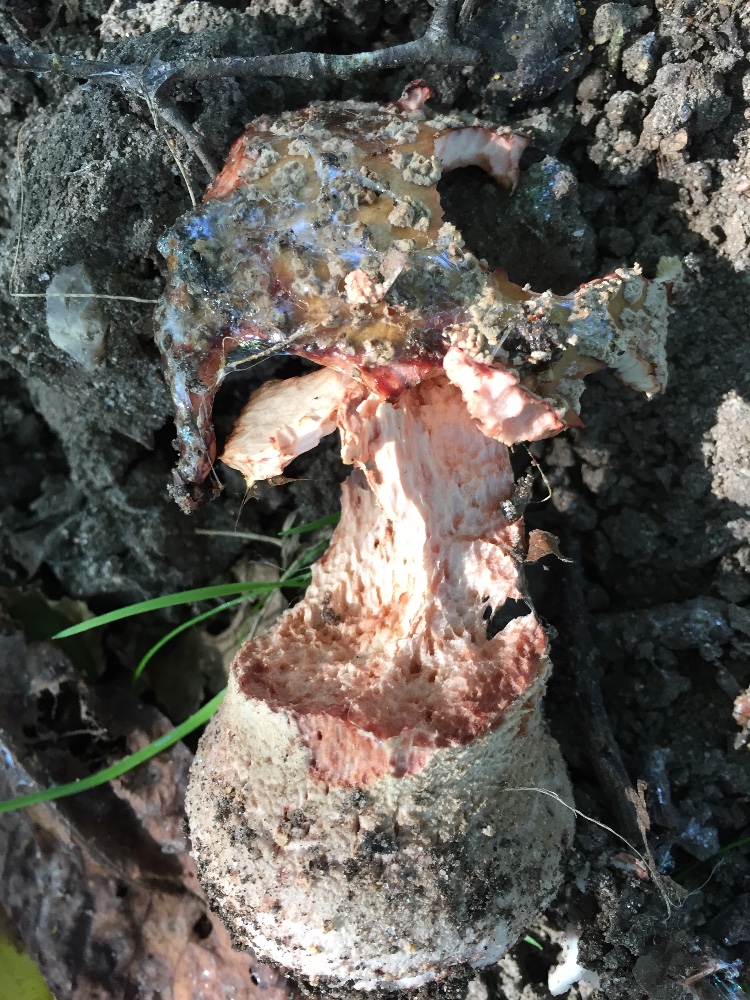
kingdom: Fungi
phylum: Basidiomycota
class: Agaricomycetes
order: Agaricales
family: Amanitaceae
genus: Amanita
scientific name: Amanita rubescens
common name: rødmende fluesvamp
